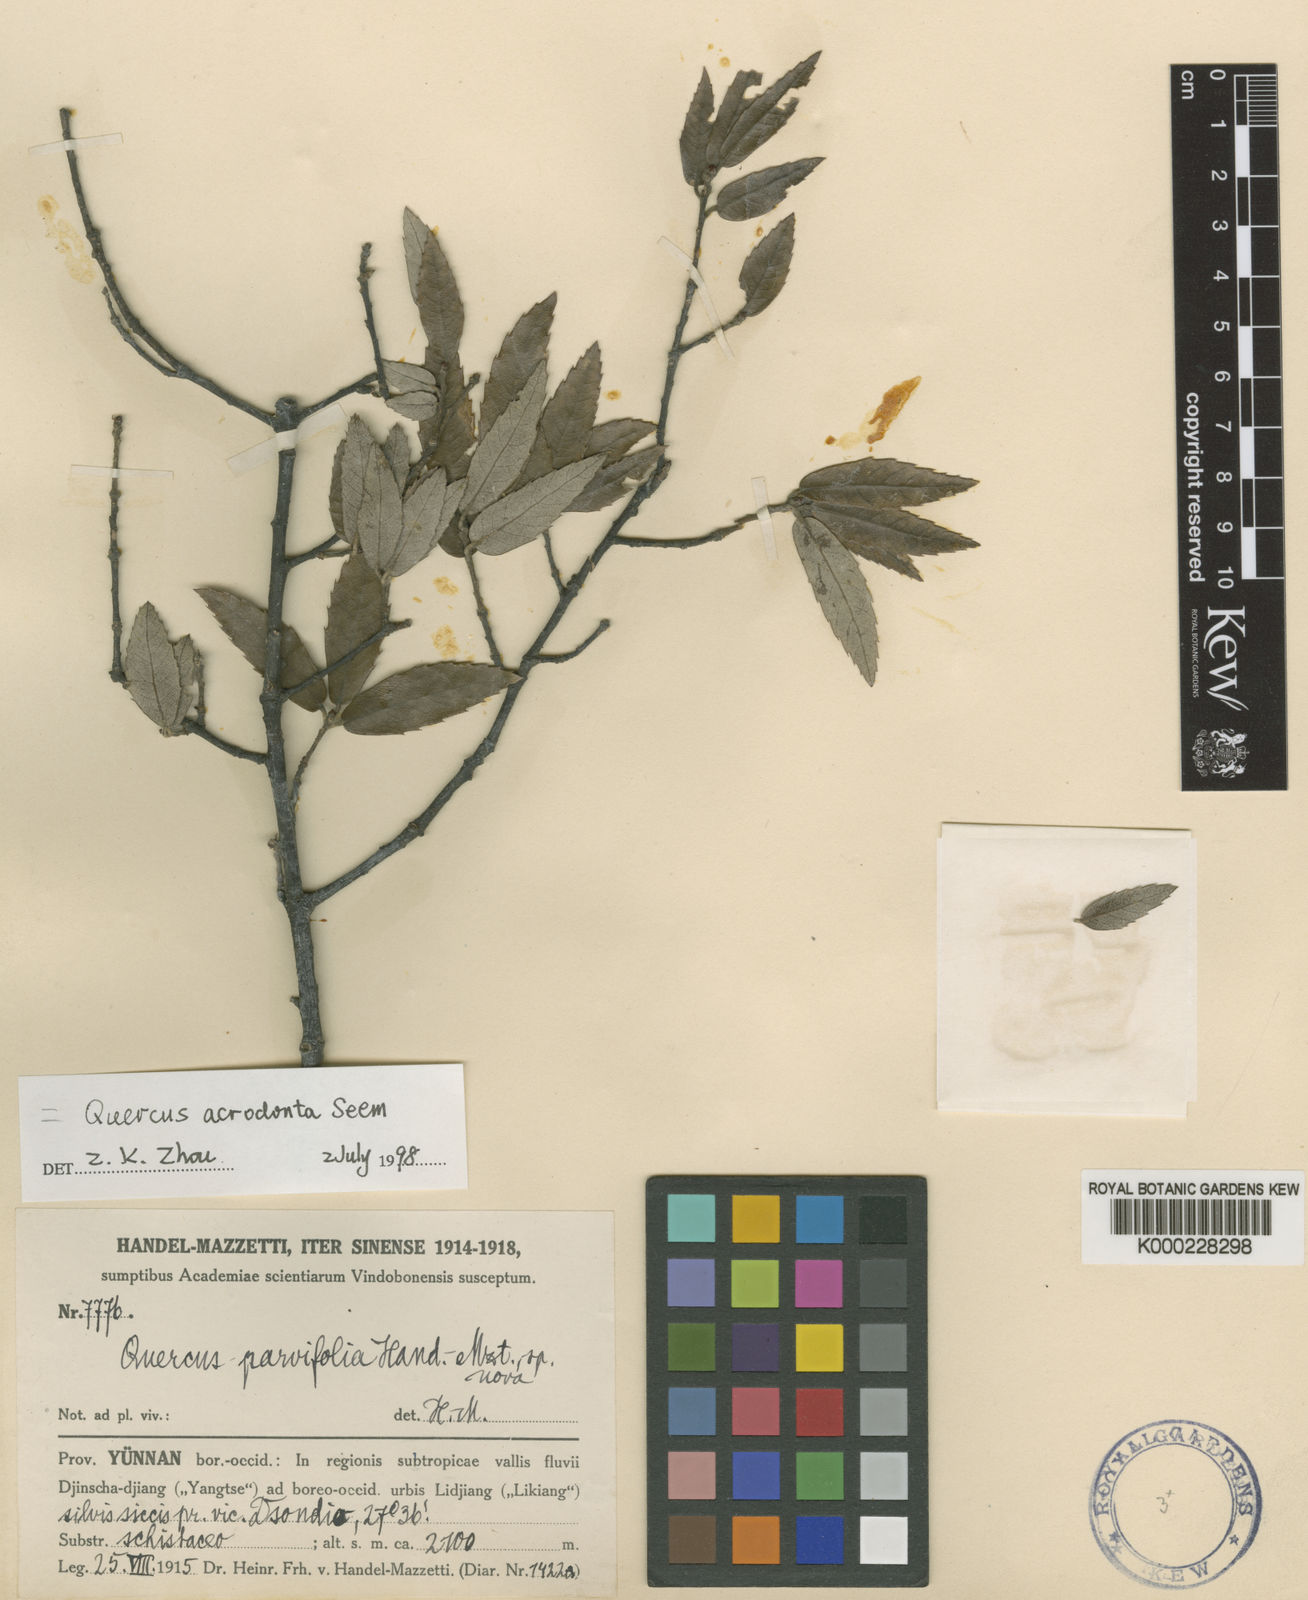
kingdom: Plantae
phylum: Tracheophyta
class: Magnoliopsida
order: Fagales
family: Fagaceae
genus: Quercus
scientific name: Quercus acrodonta
